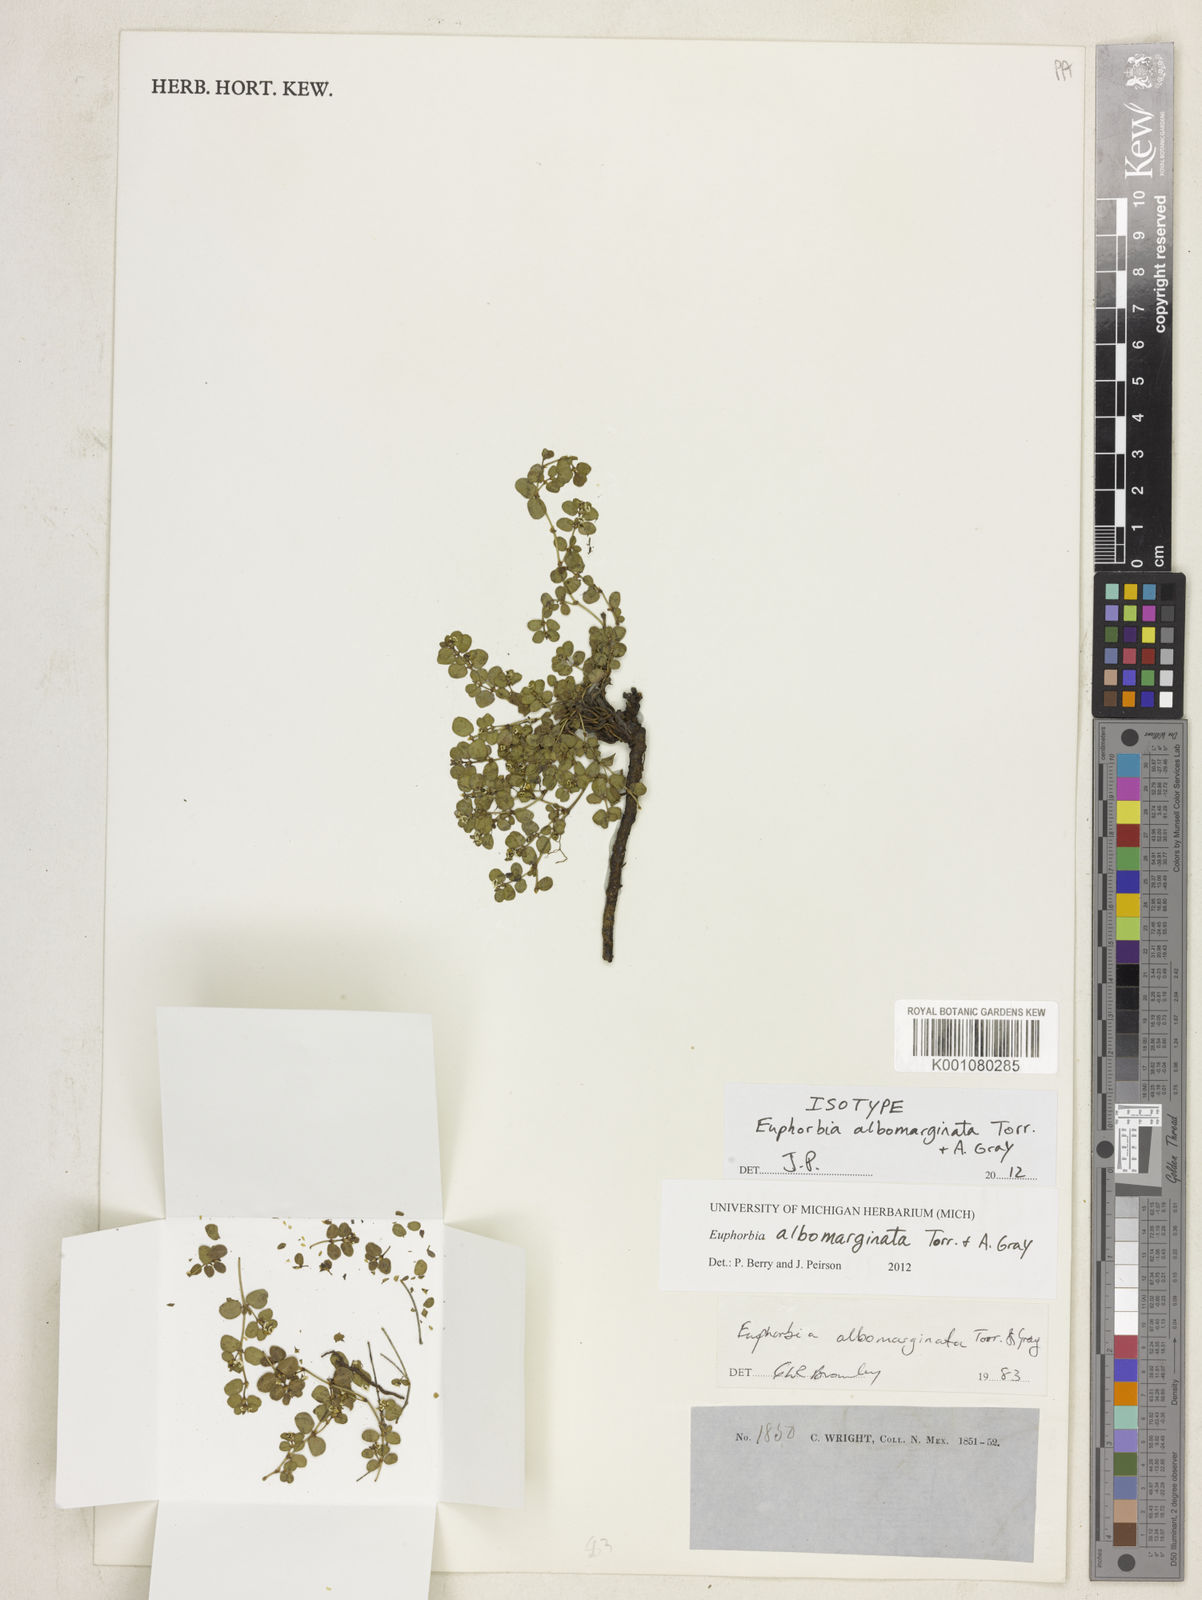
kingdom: Plantae
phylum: Tracheophyta
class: Magnoliopsida
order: Malpighiales
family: Euphorbiaceae
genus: Euphorbia
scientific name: Euphorbia albomarginata
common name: Whitemargin sandmat
